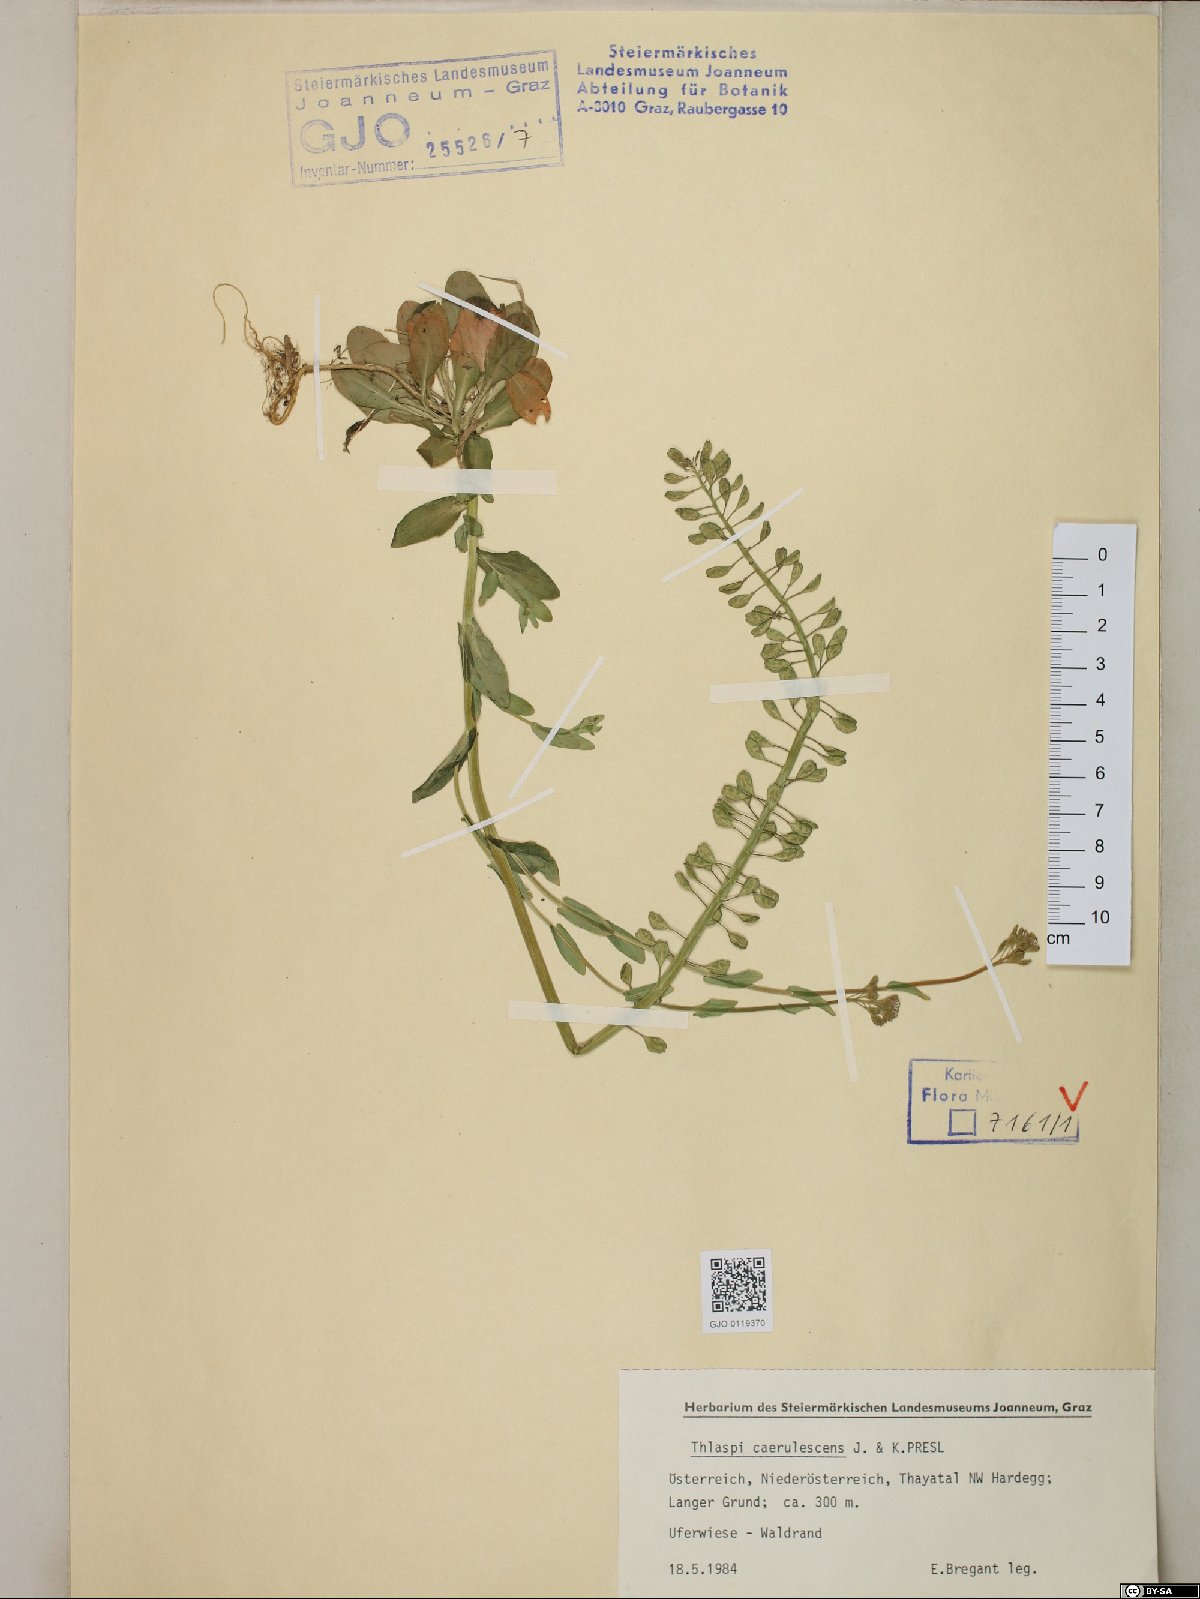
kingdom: Plantae
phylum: Tracheophyta
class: Magnoliopsida
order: Brassicales
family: Brassicaceae
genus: Noccaea
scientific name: Noccaea caerulescens
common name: Alpine pennycress
